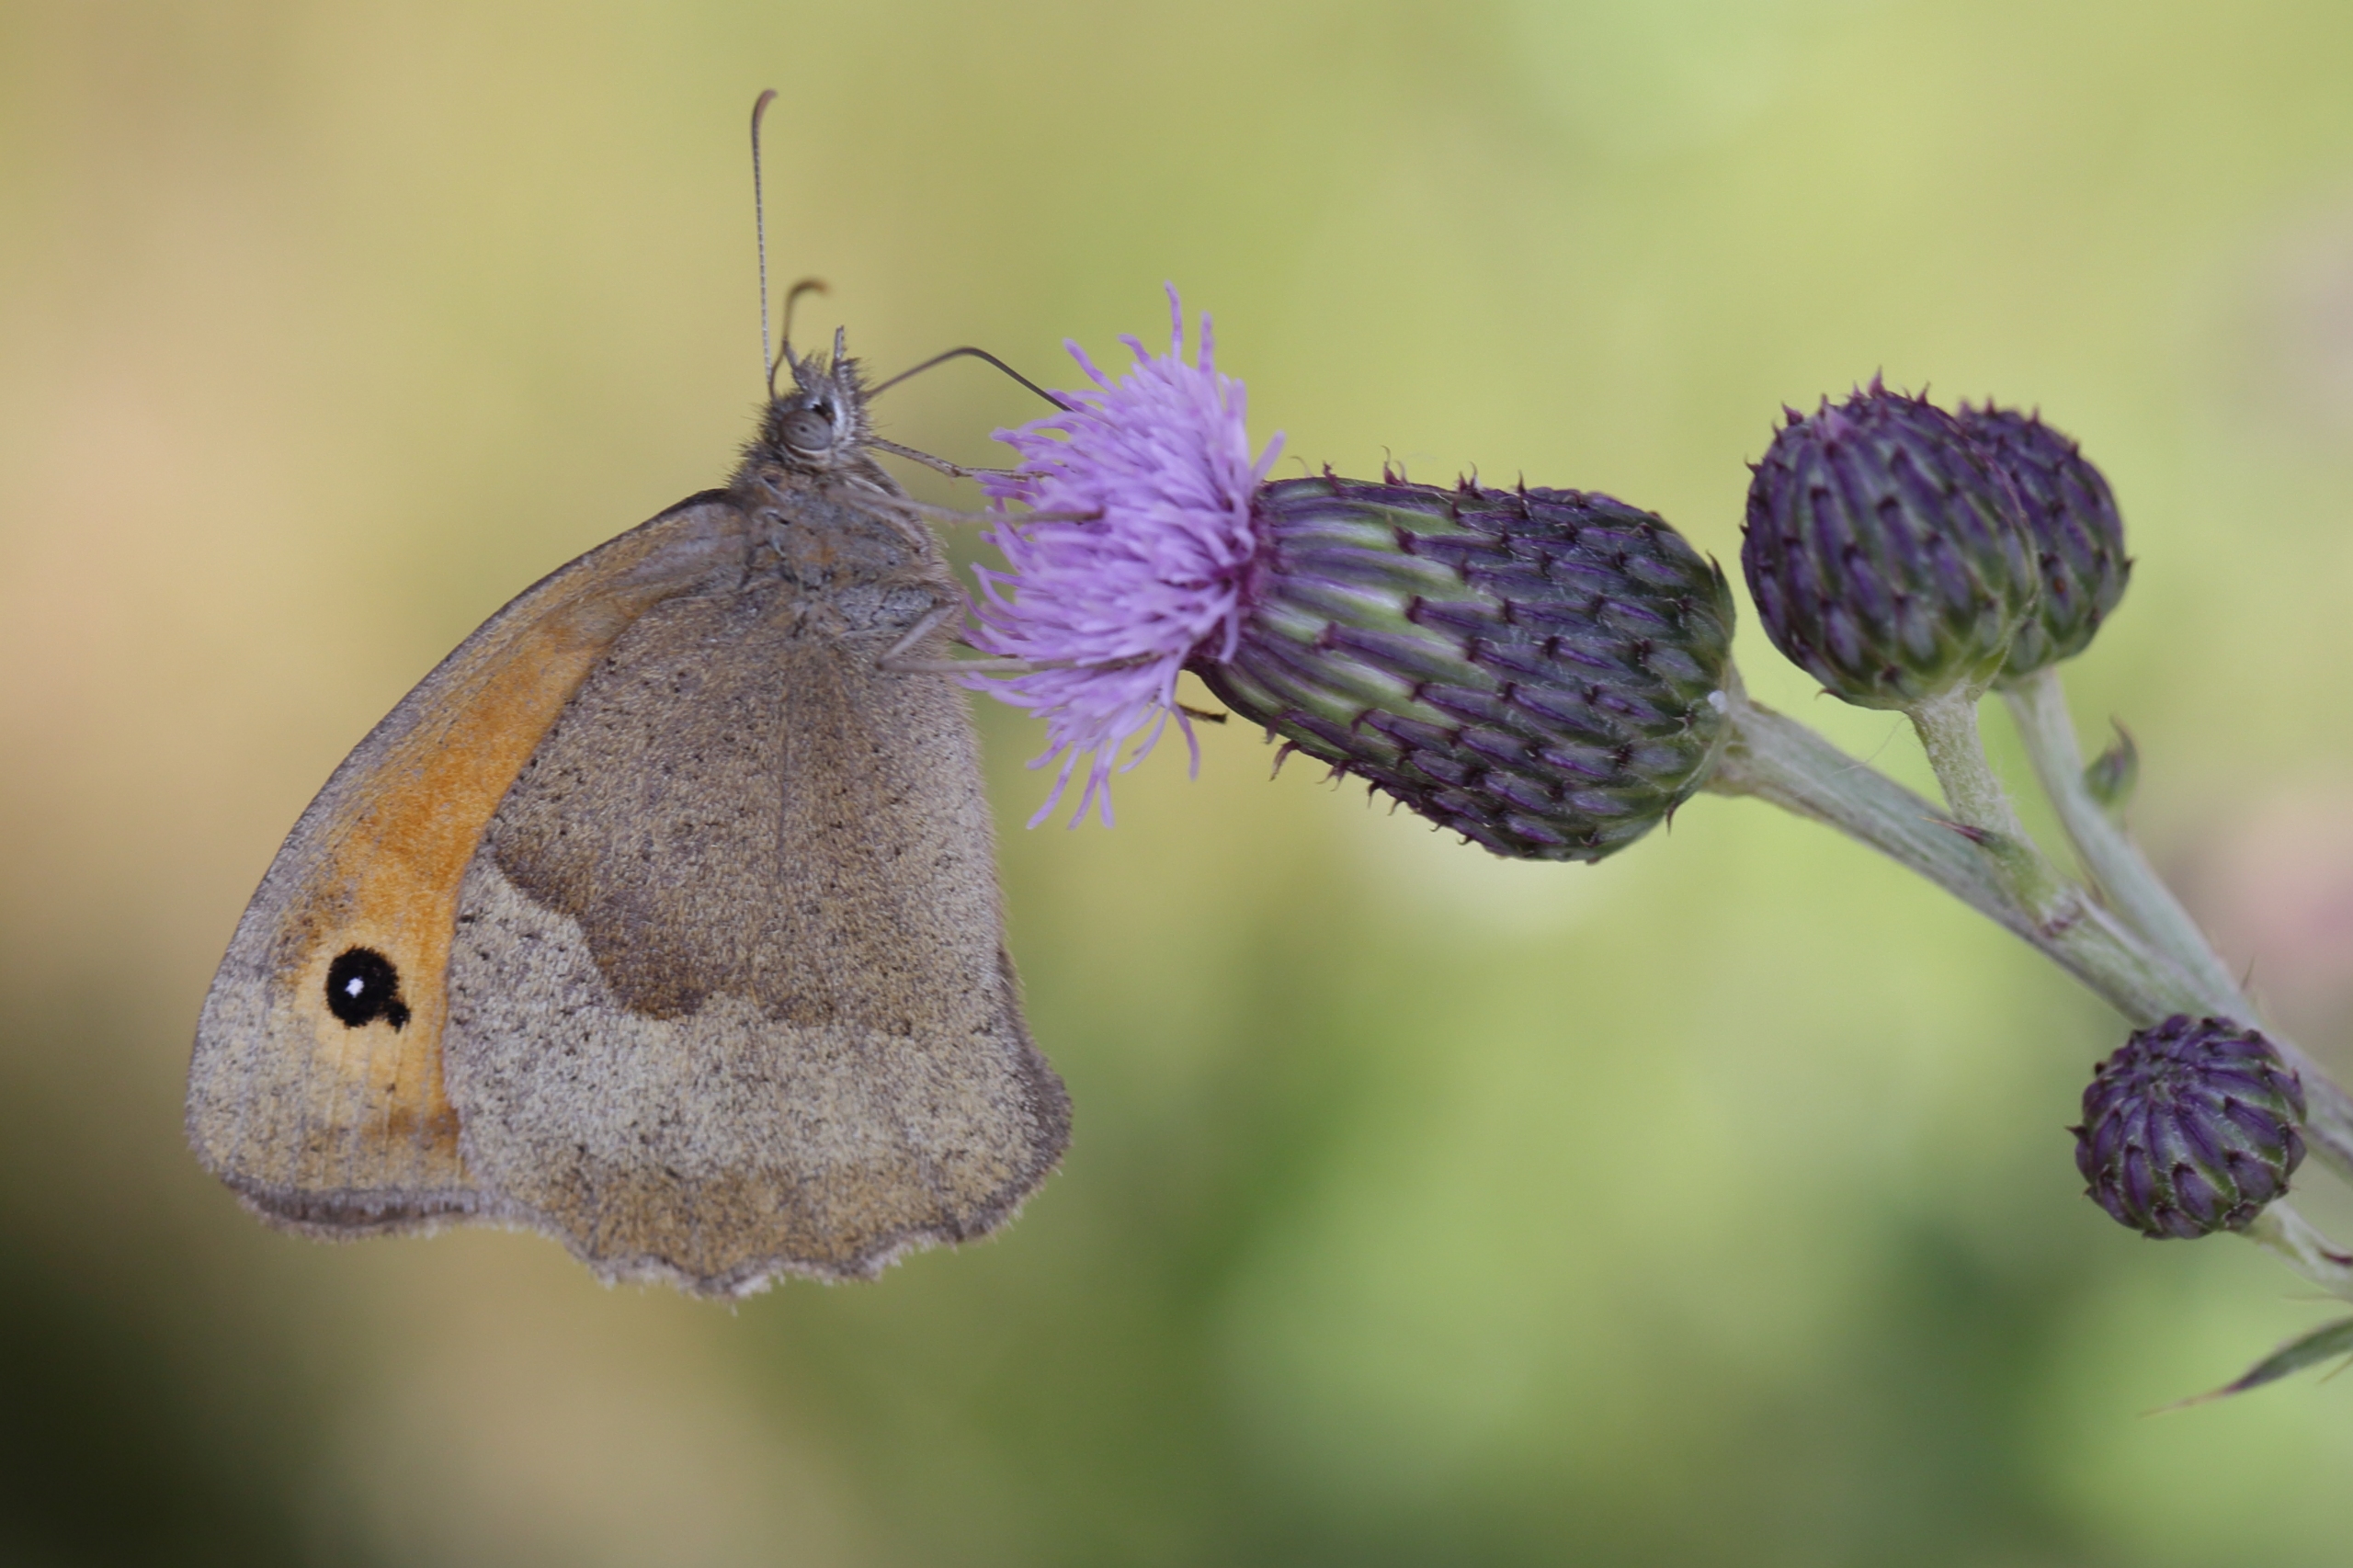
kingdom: Animalia
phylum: Arthropoda
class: Insecta
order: Lepidoptera
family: Nymphalidae
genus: Maniola
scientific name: Maniola jurtina
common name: Græsrandøje
